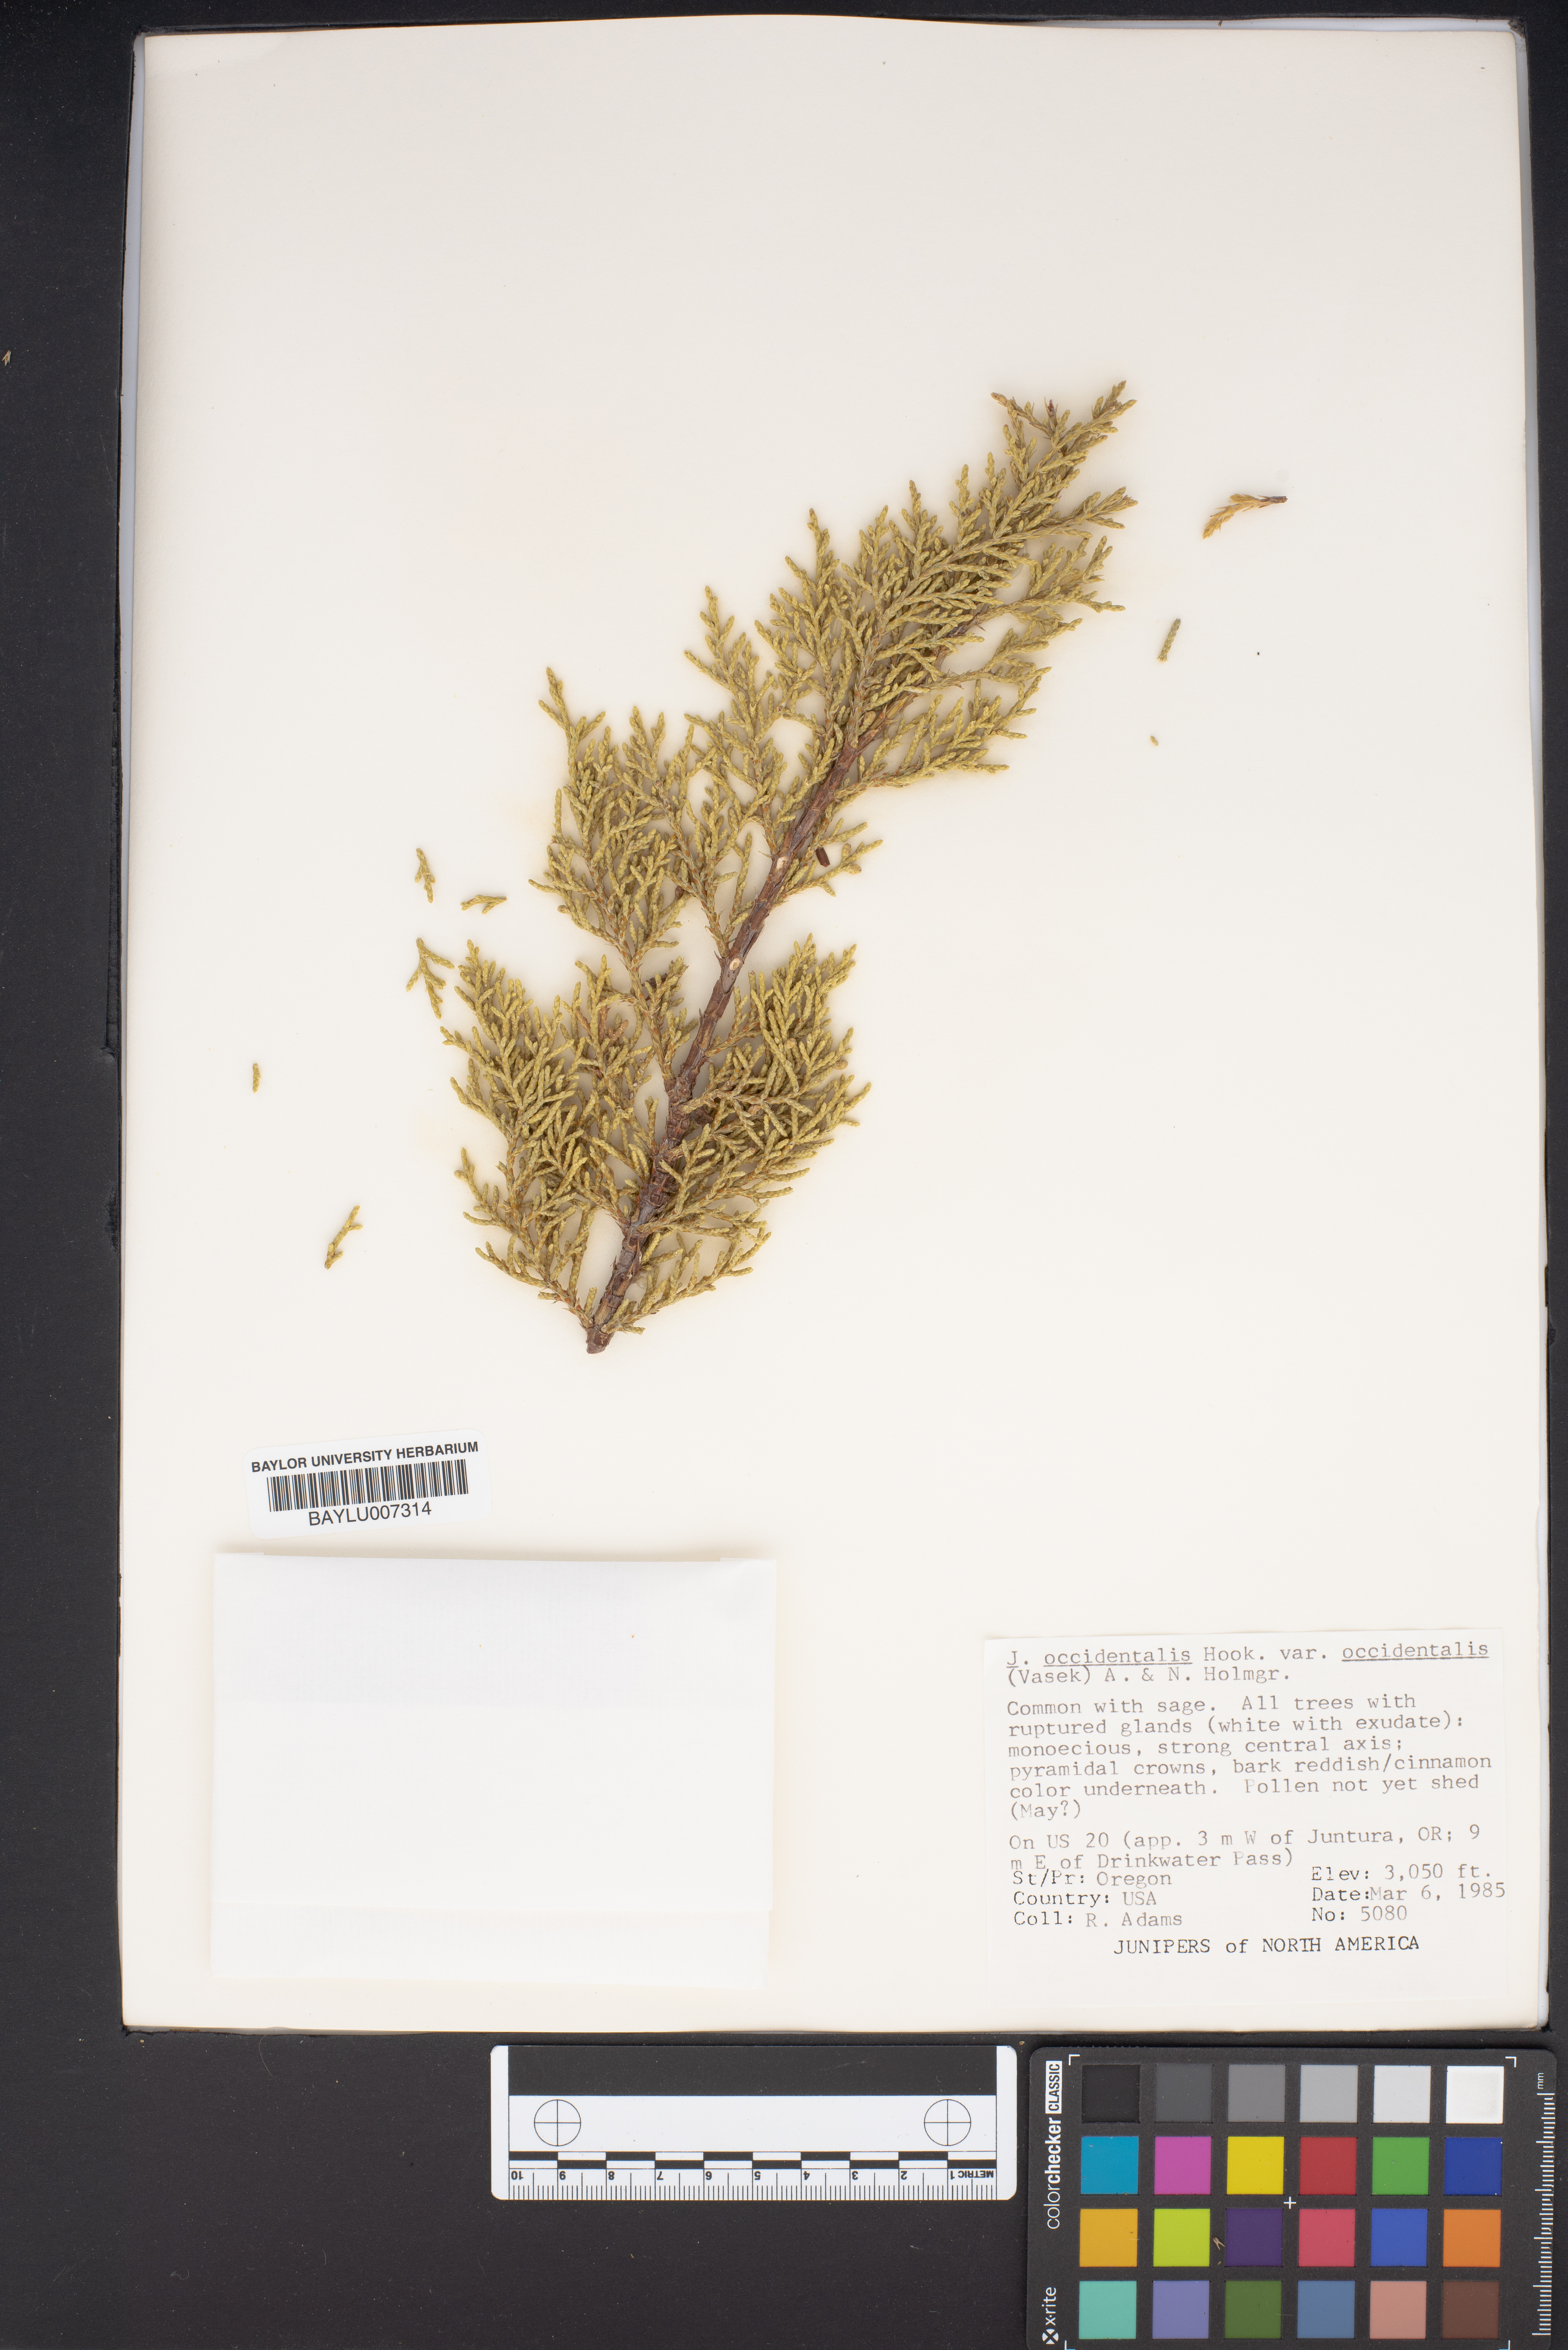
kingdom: Plantae
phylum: Tracheophyta
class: Pinopsida
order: Pinales
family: Cupressaceae
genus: Juniperus
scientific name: Juniperus occidentalis
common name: Western juniper
